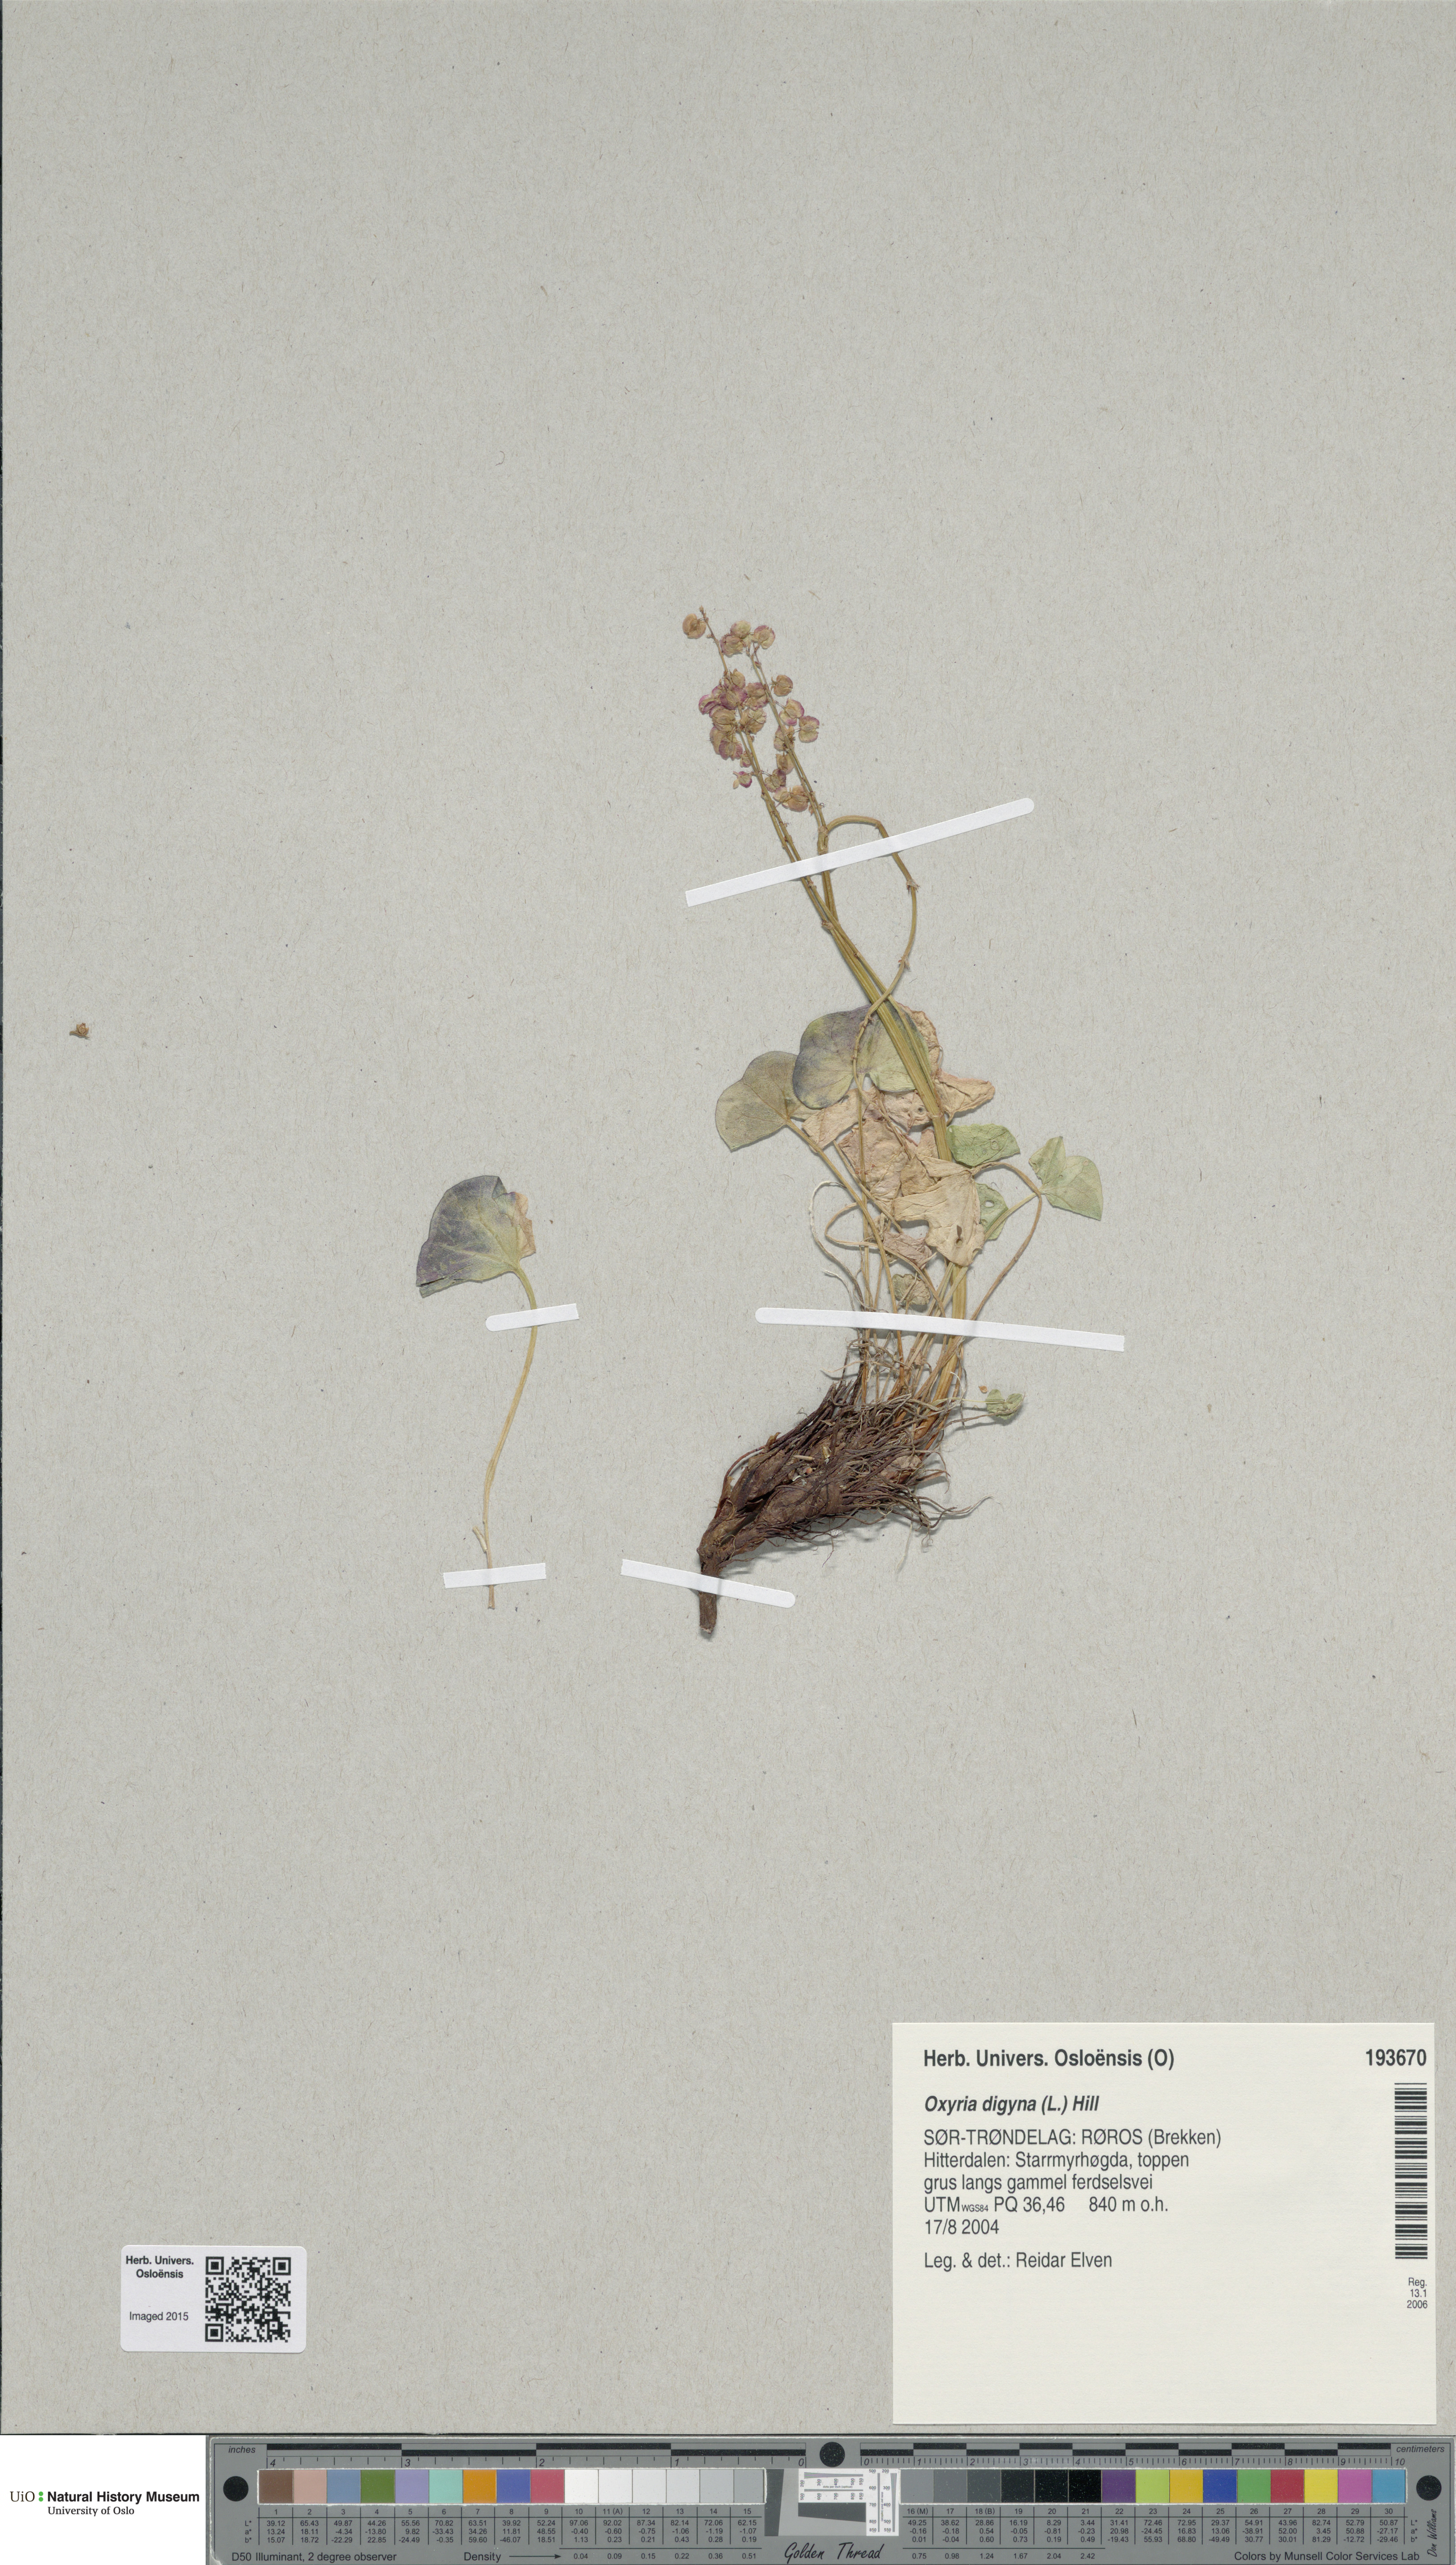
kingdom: Plantae
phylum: Tracheophyta
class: Magnoliopsida
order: Caryophyllales
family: Polygonaceae
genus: Oxyria
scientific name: Oxyria digyna
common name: Alpine mountain-sorrel
